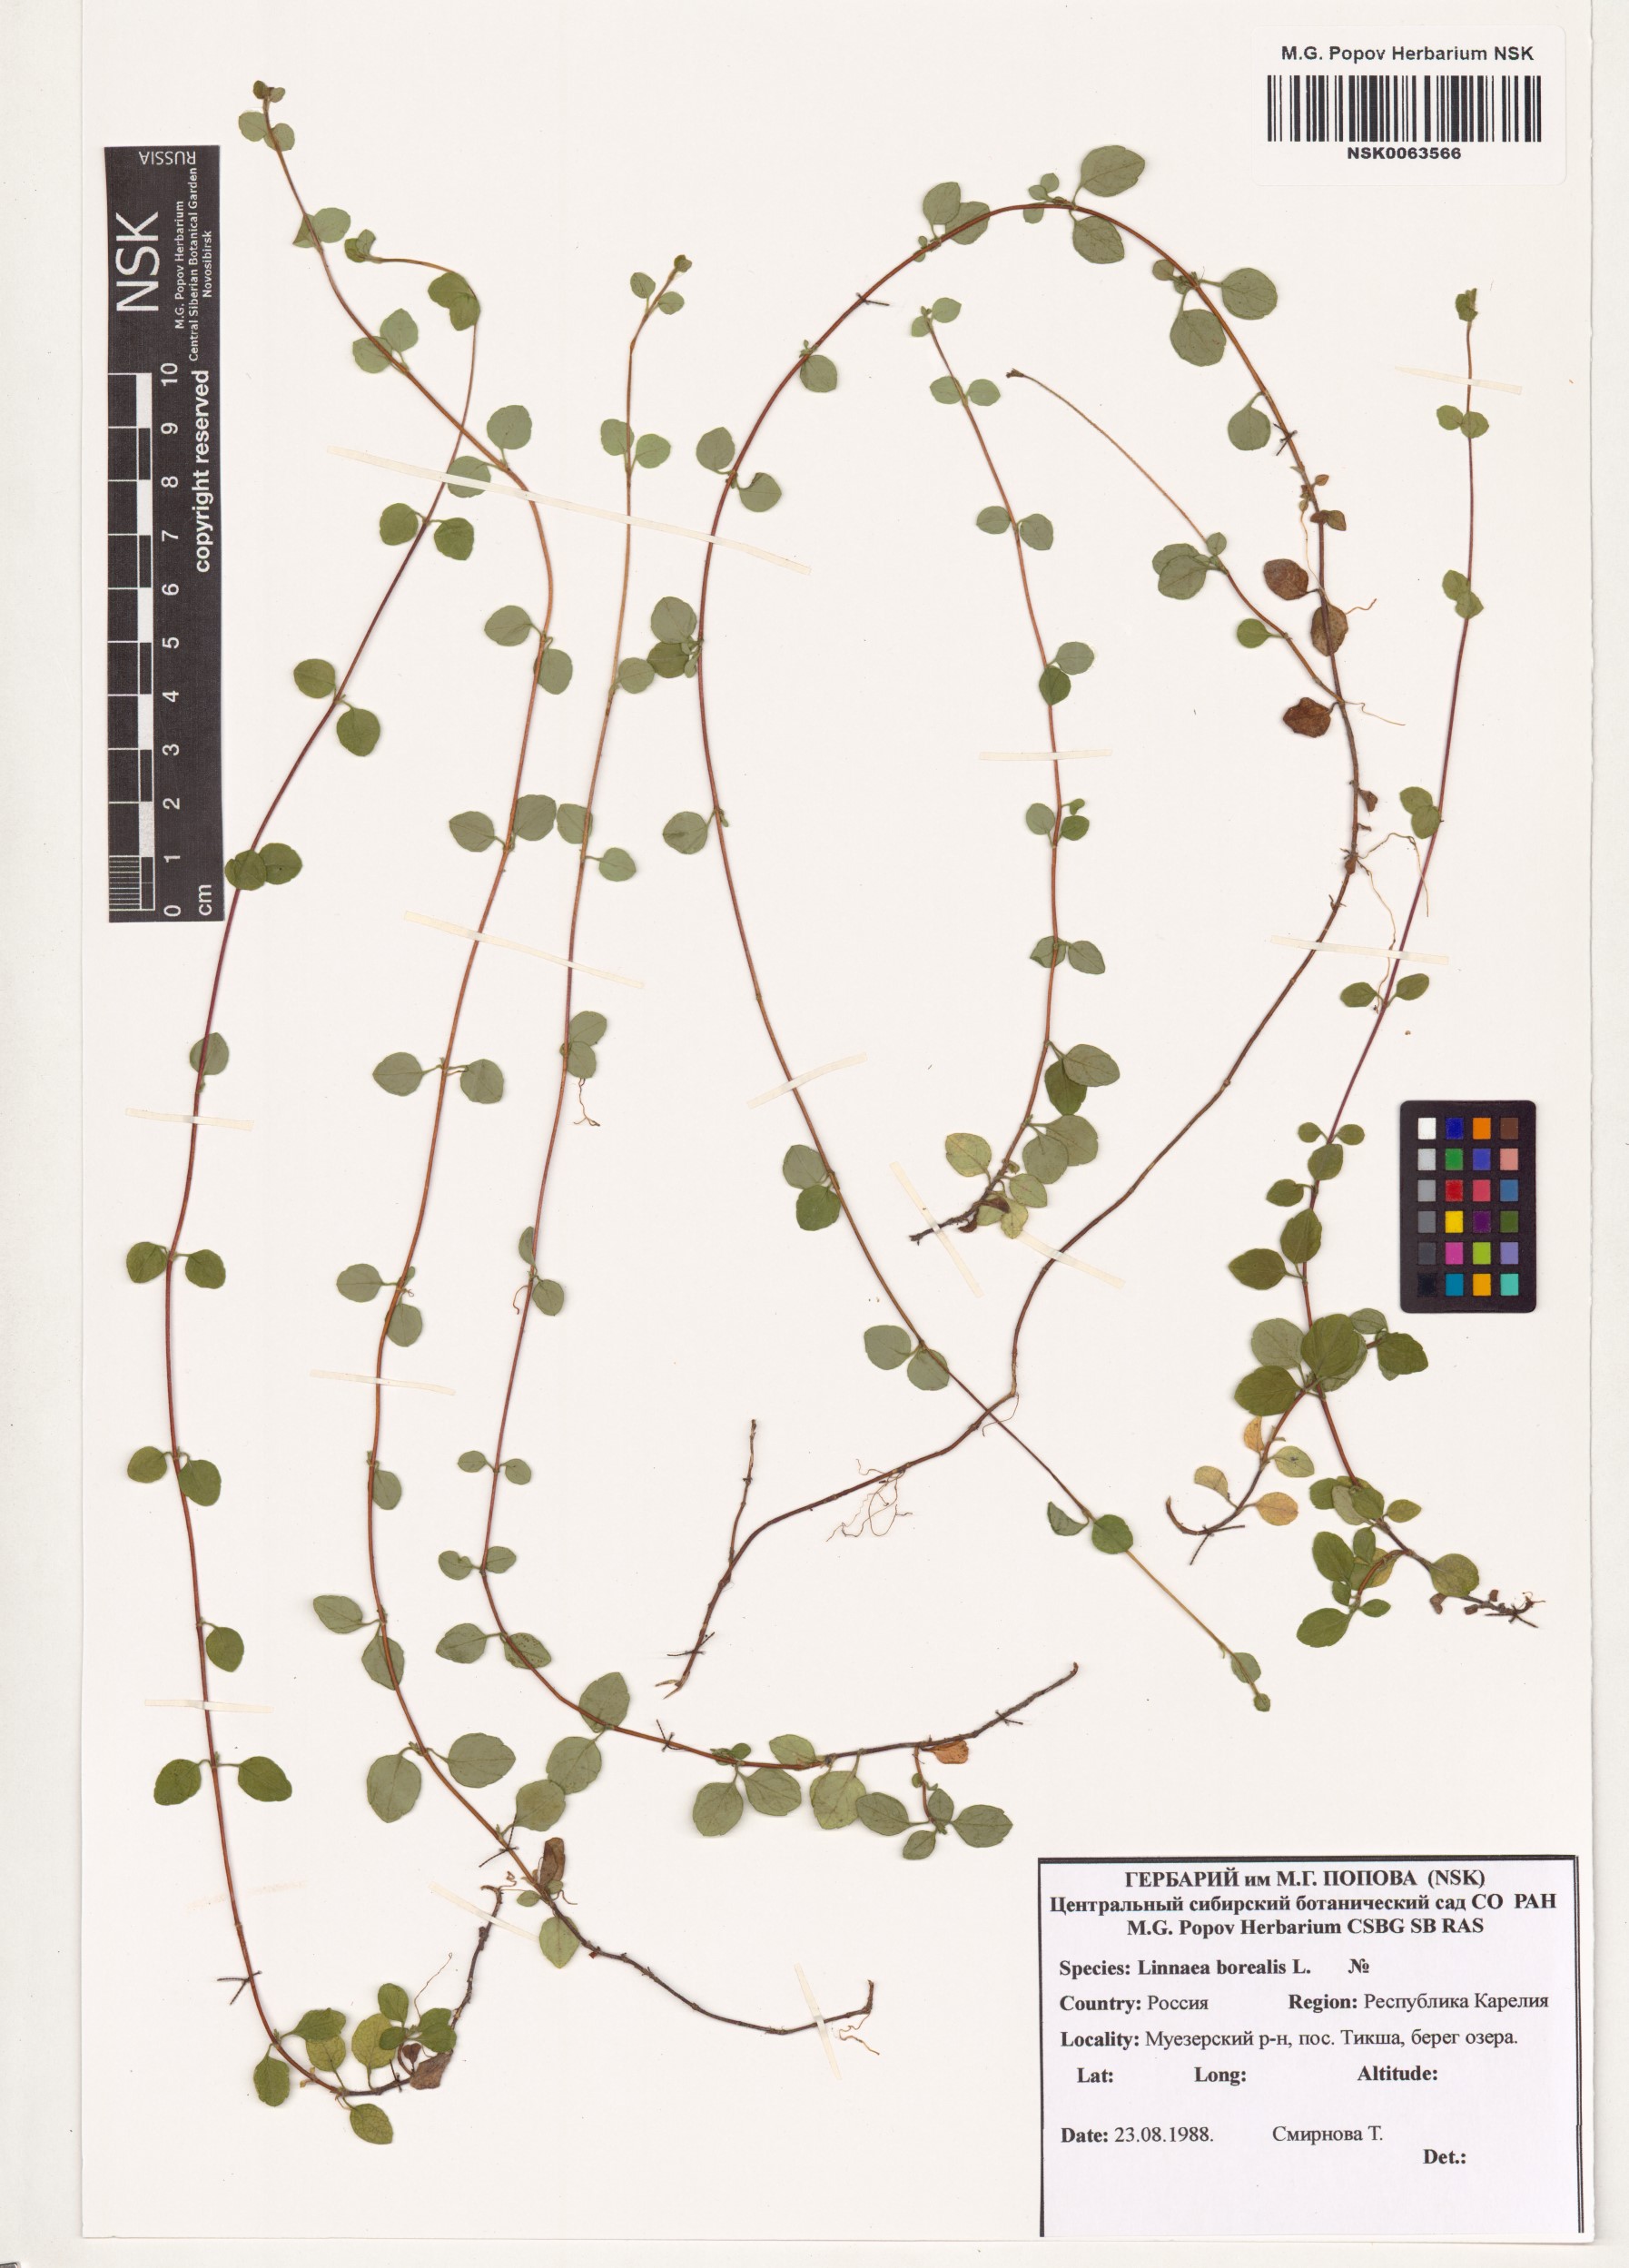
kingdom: Plantae
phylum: Tracheophyta
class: Magnoliopsida
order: Dipsacales
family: Caprifoliaceae
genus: Linnaea
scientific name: Linnaea borealis
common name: Twinflower
